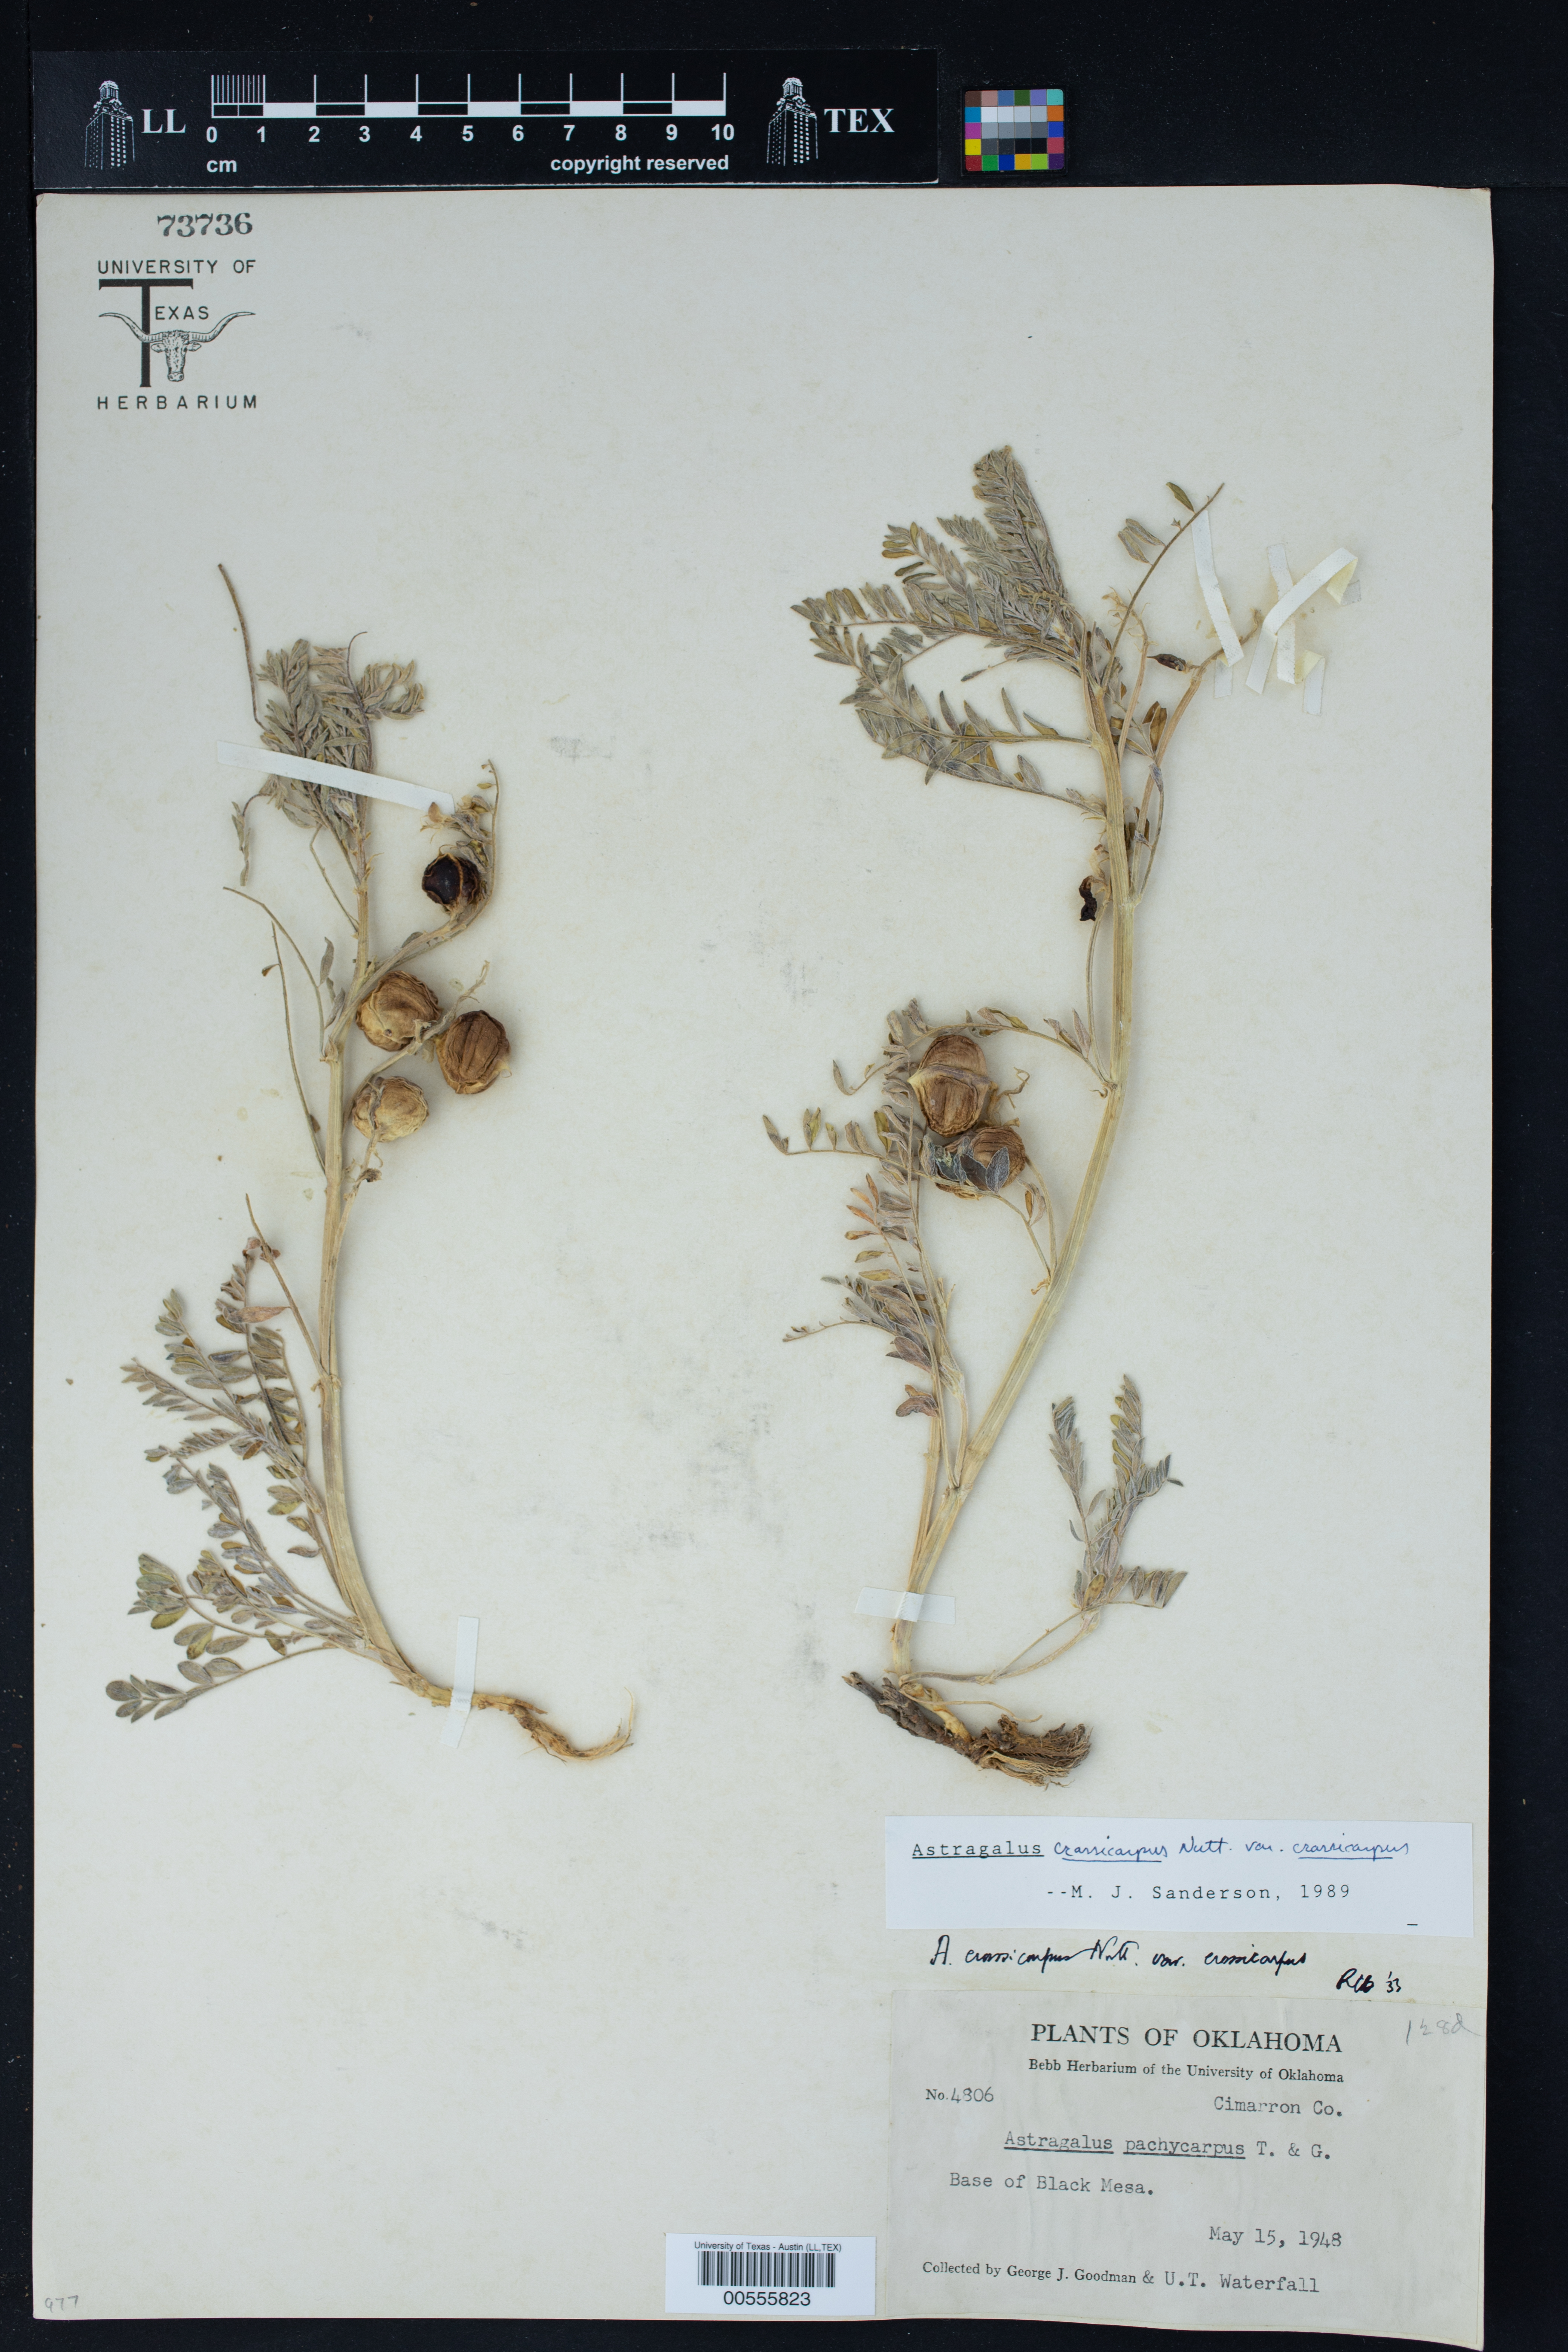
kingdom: Plantae
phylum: Tracheophyta
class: Magnoliopsida
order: Fabales
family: Fabaceae
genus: Astragalus
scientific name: Astragalus crassicarpus
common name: Ground-plum milk-vetch
